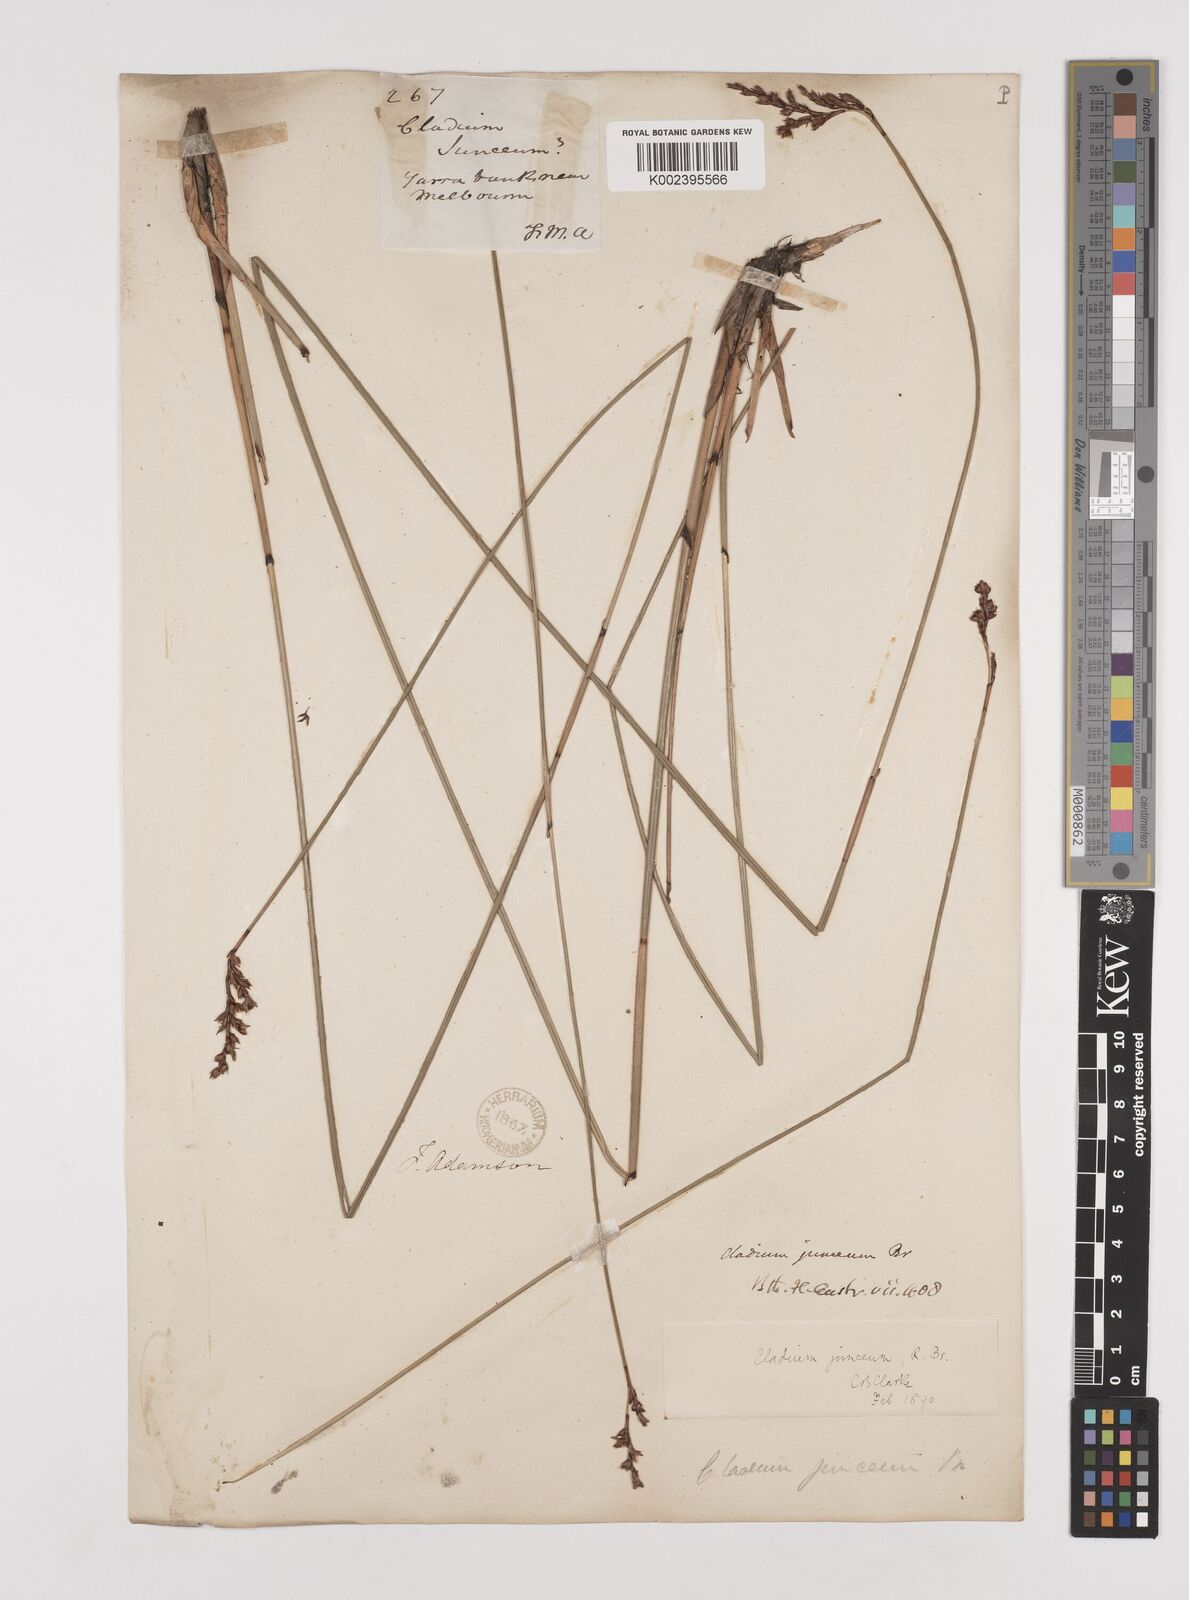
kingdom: Plantae
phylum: Tracheophyta
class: Liliopsida
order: Poales
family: Cyperaceae
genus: Machaerina
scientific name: Machaerina juncea
